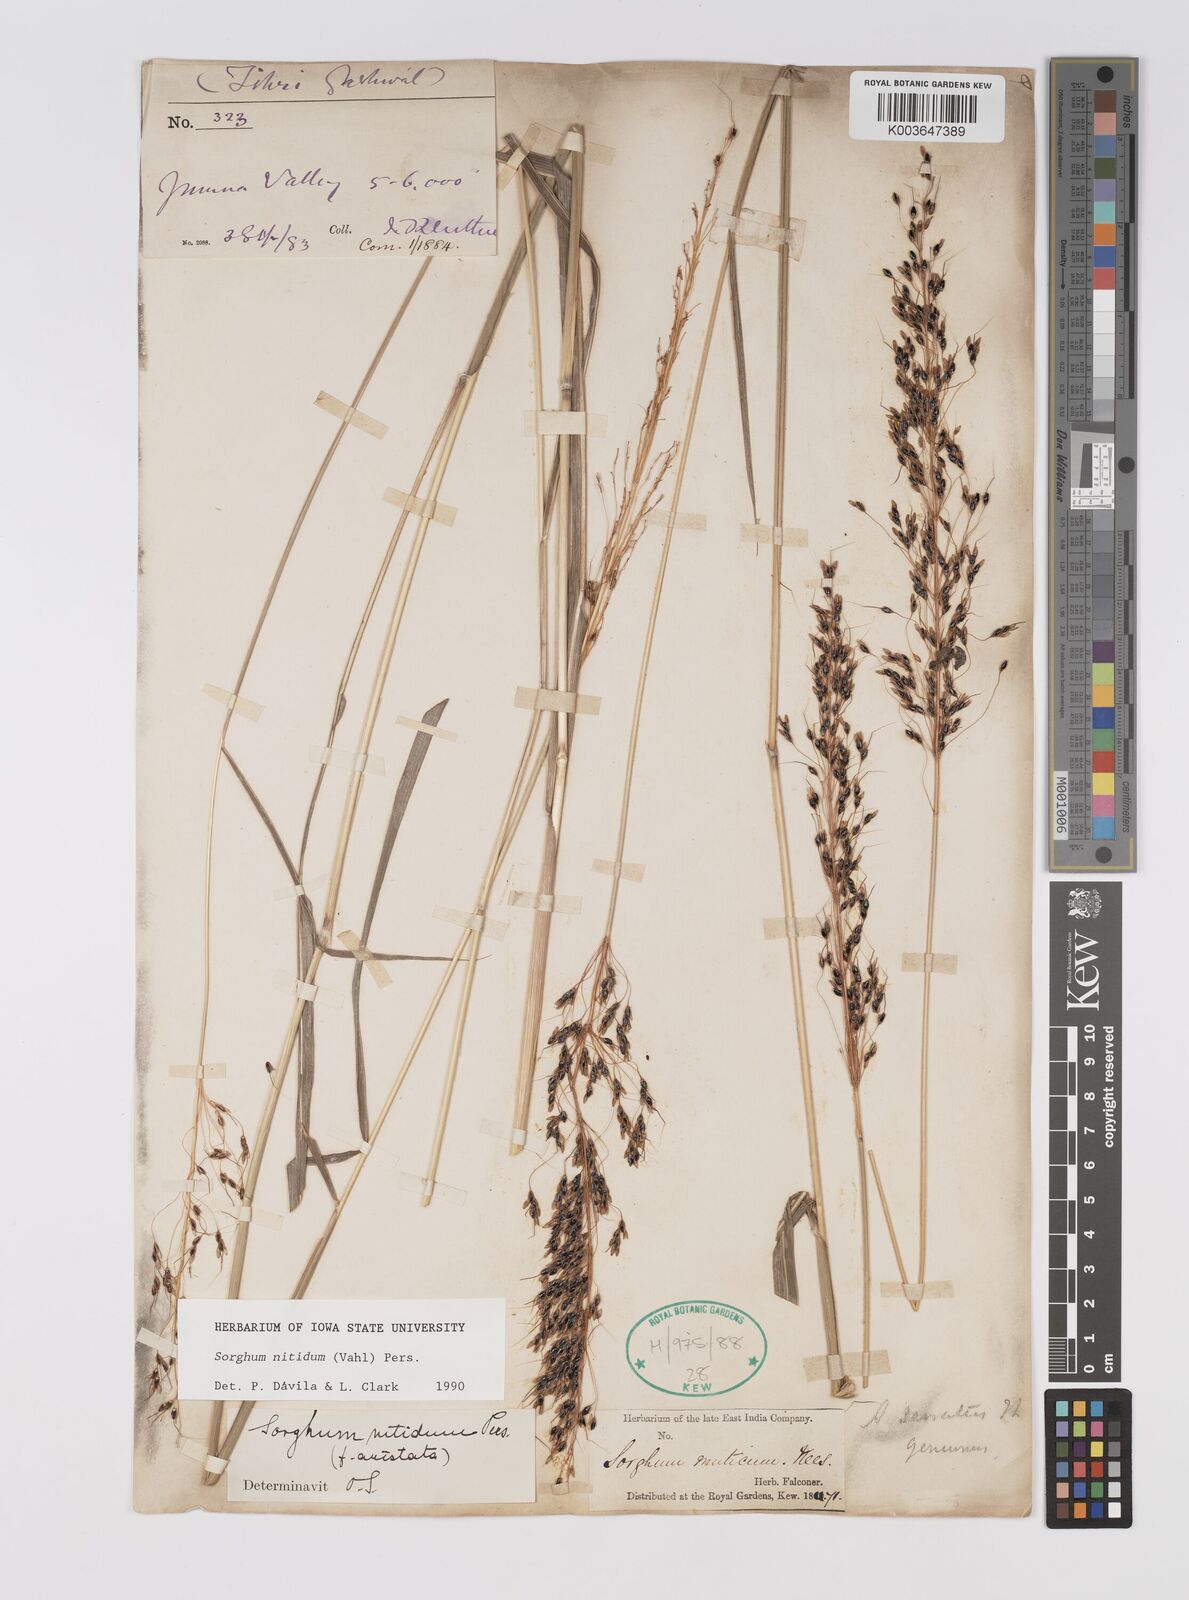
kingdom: Plantae
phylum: Tracheophyta
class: Liliopsida
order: Poales
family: Poaceae
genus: Sorghum
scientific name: Sorghum nitidum
